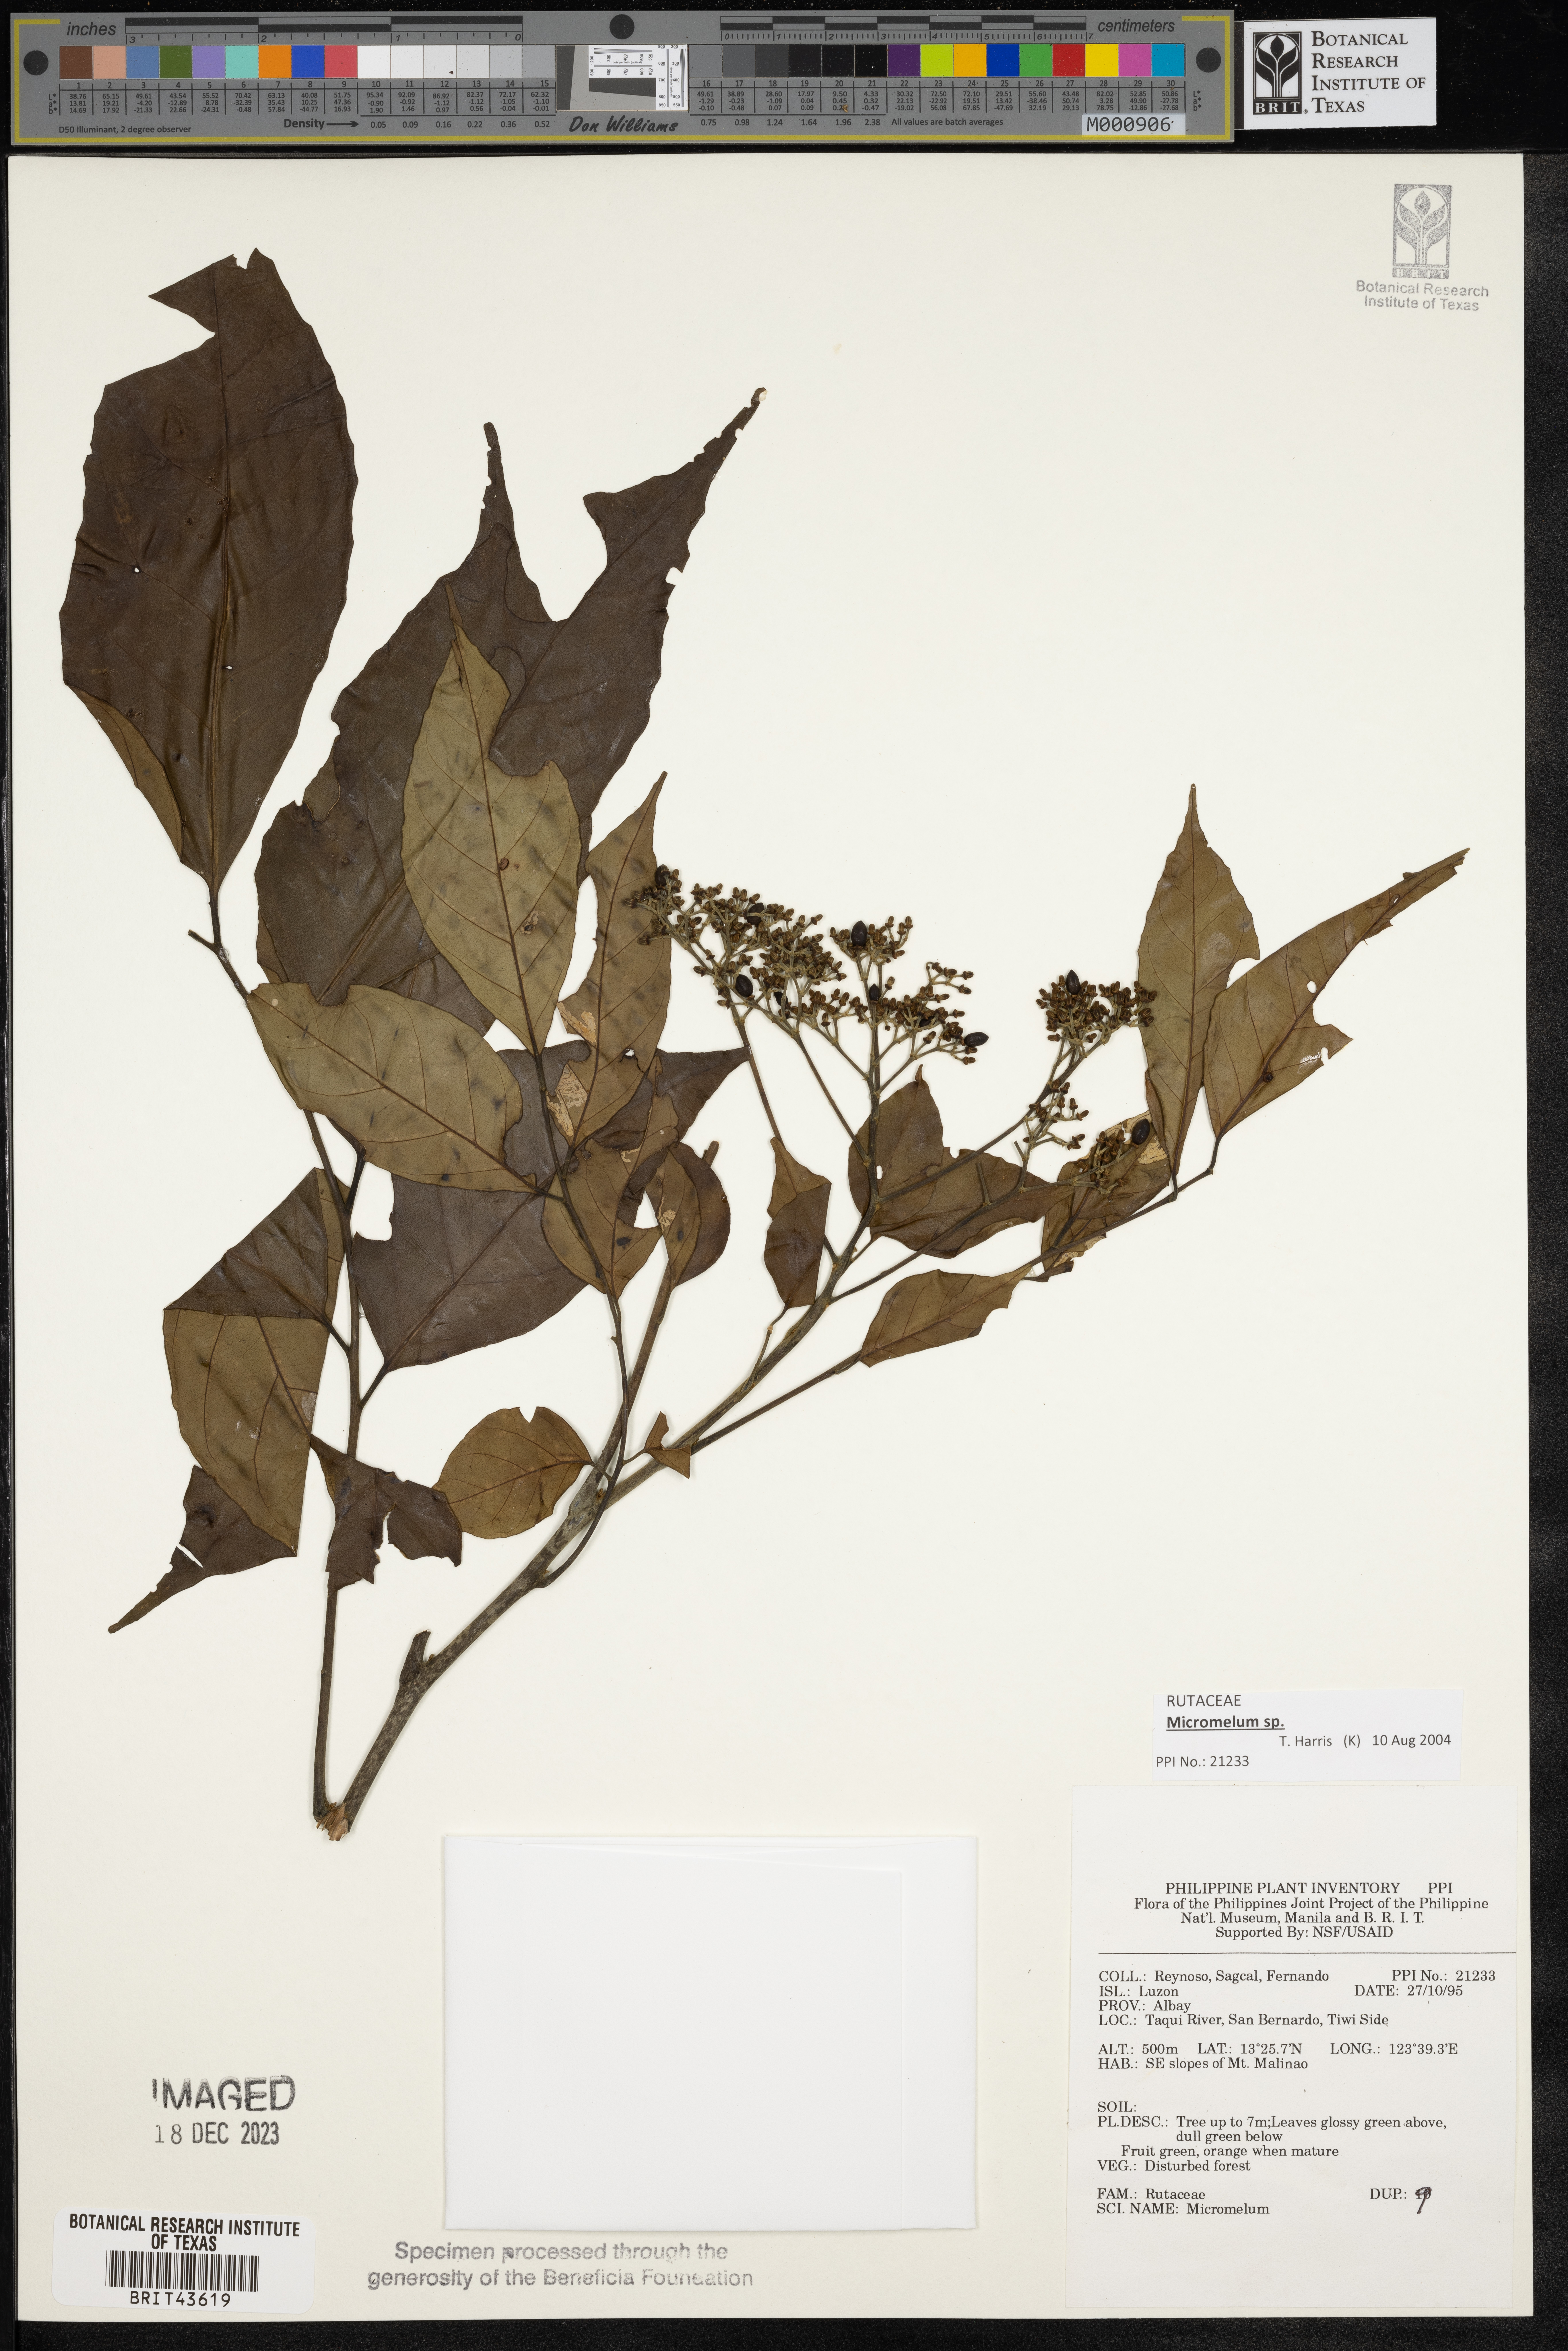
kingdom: Plantae
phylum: Tracheophyta
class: Magnoliopsida
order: Sapindales
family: Rutaceae
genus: Micromelum
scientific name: Micromelum
